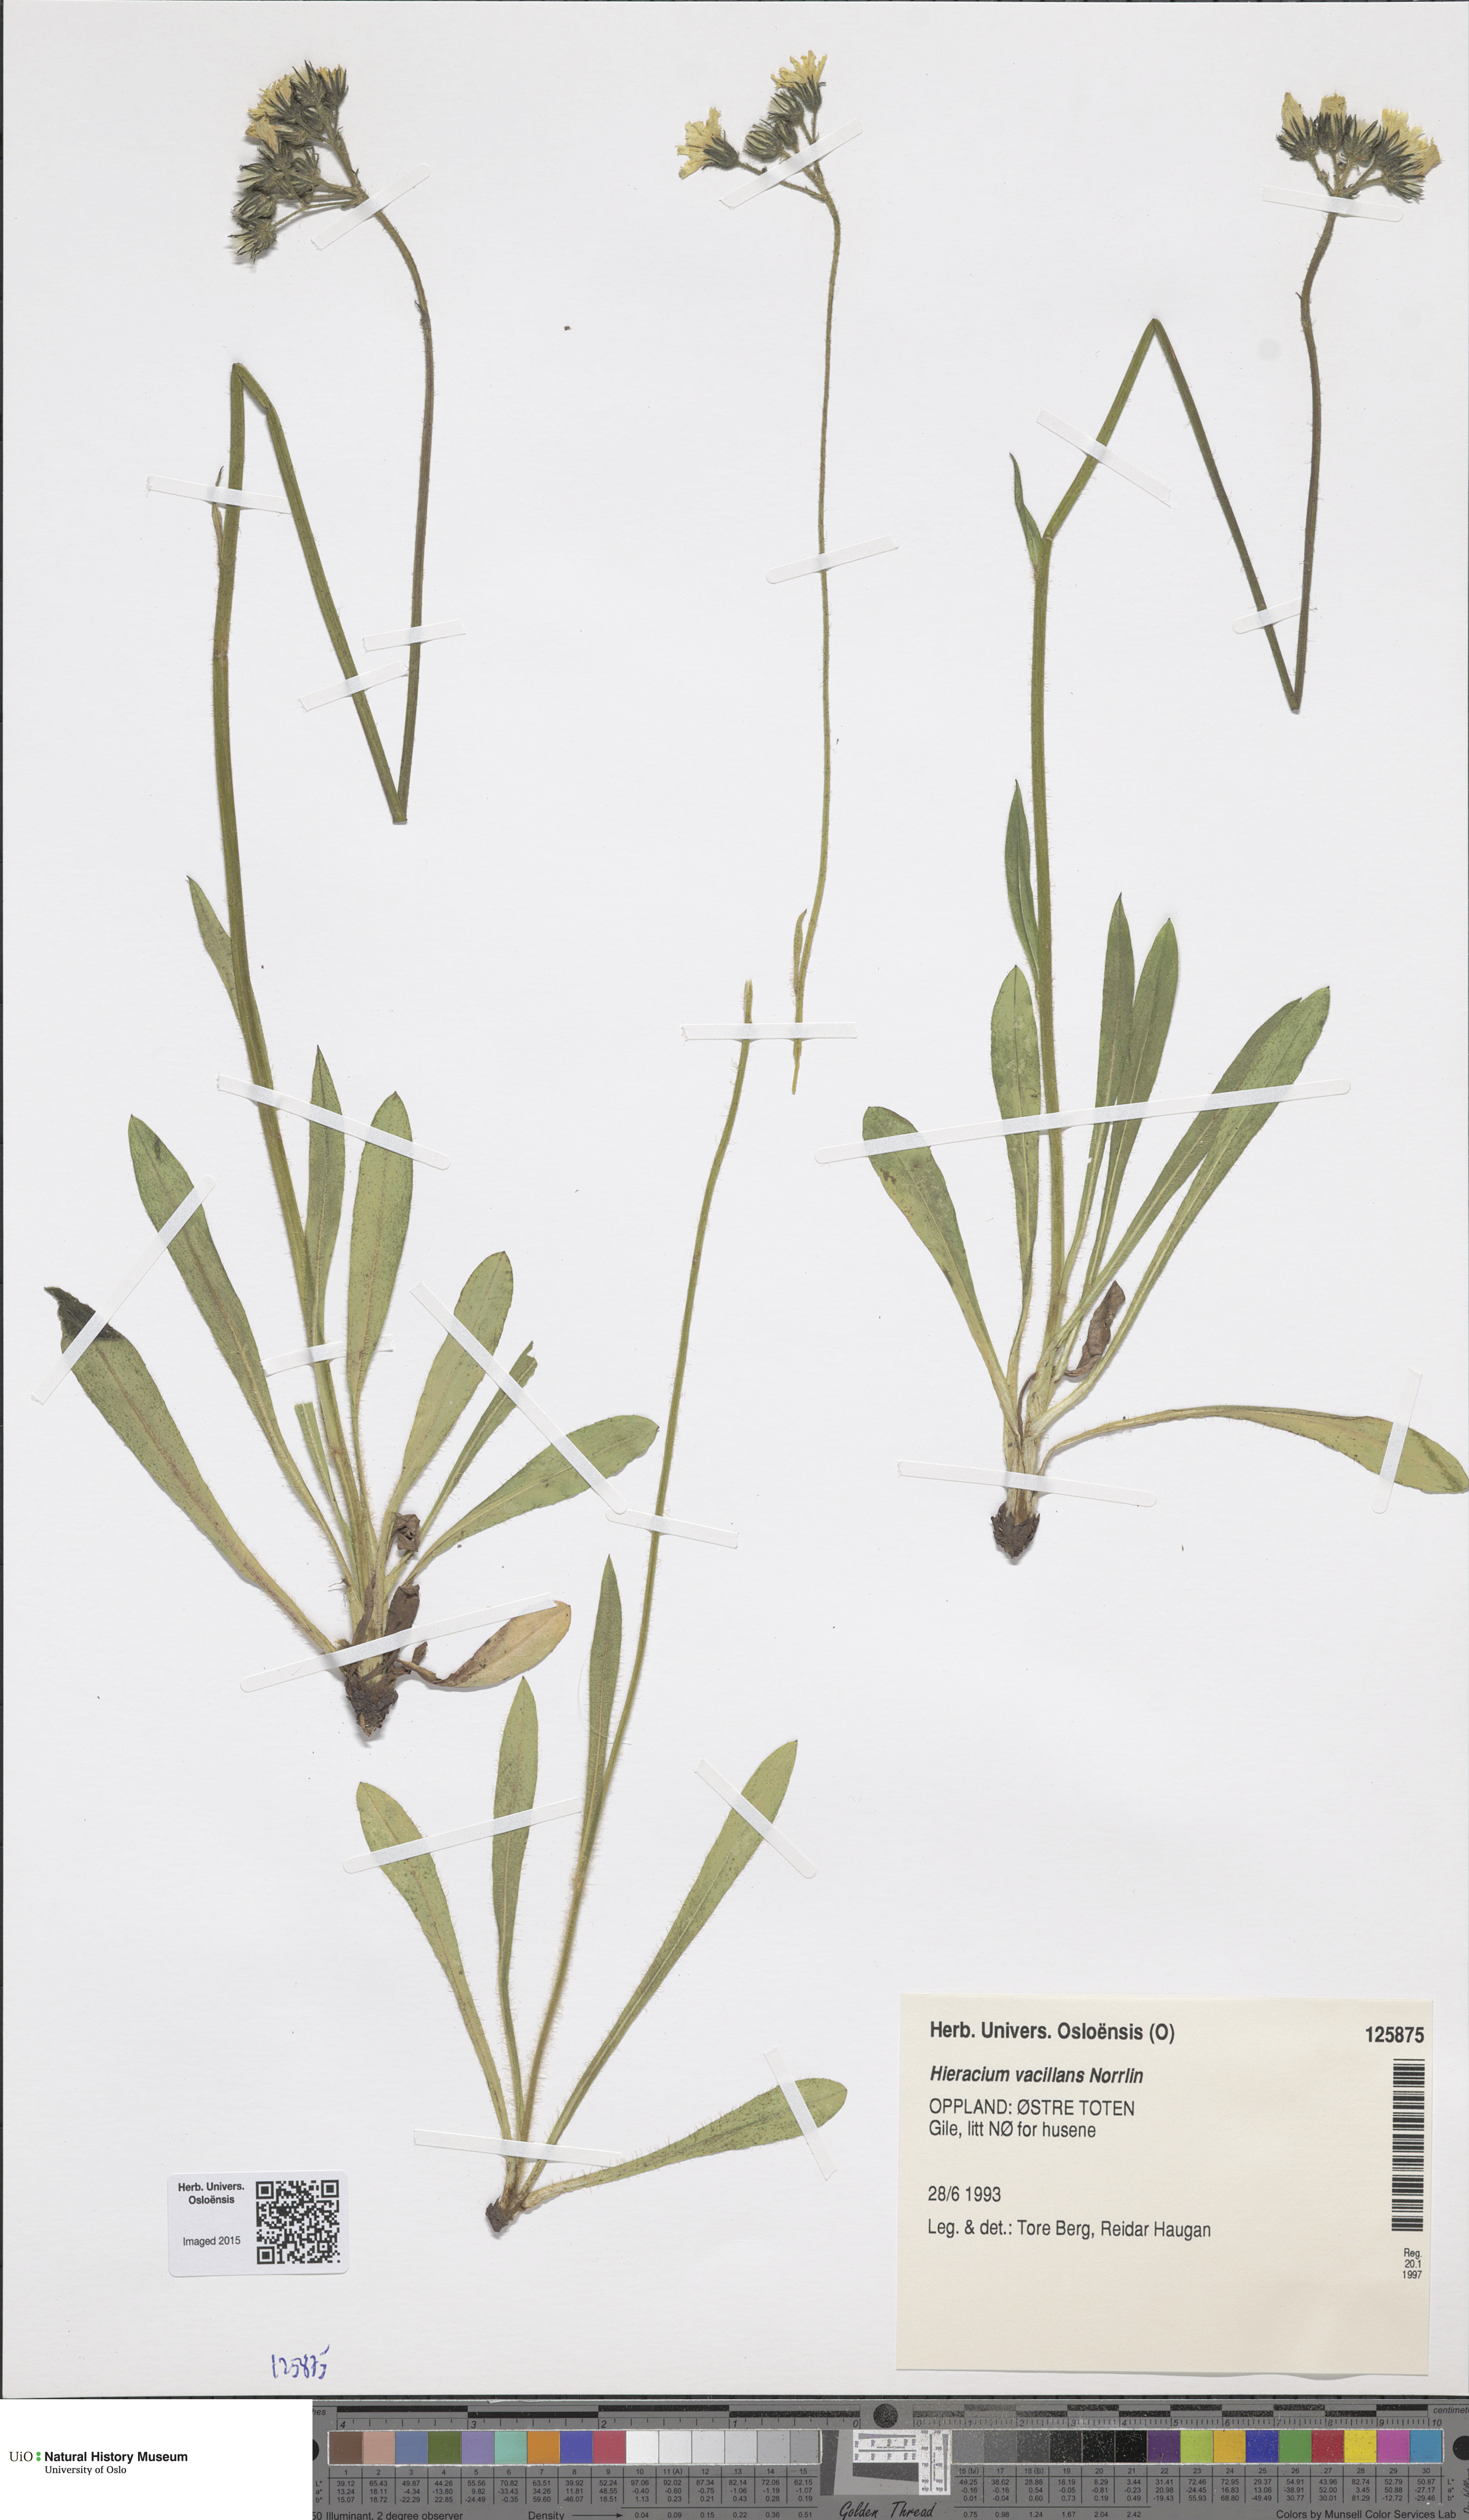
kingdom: Plantae
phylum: Tracheophyta
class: Magnoliopsida
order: Asterales
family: Asteraceae
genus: Pilosella
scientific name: Pilosella glomerata
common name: Queen devil hawkweed
